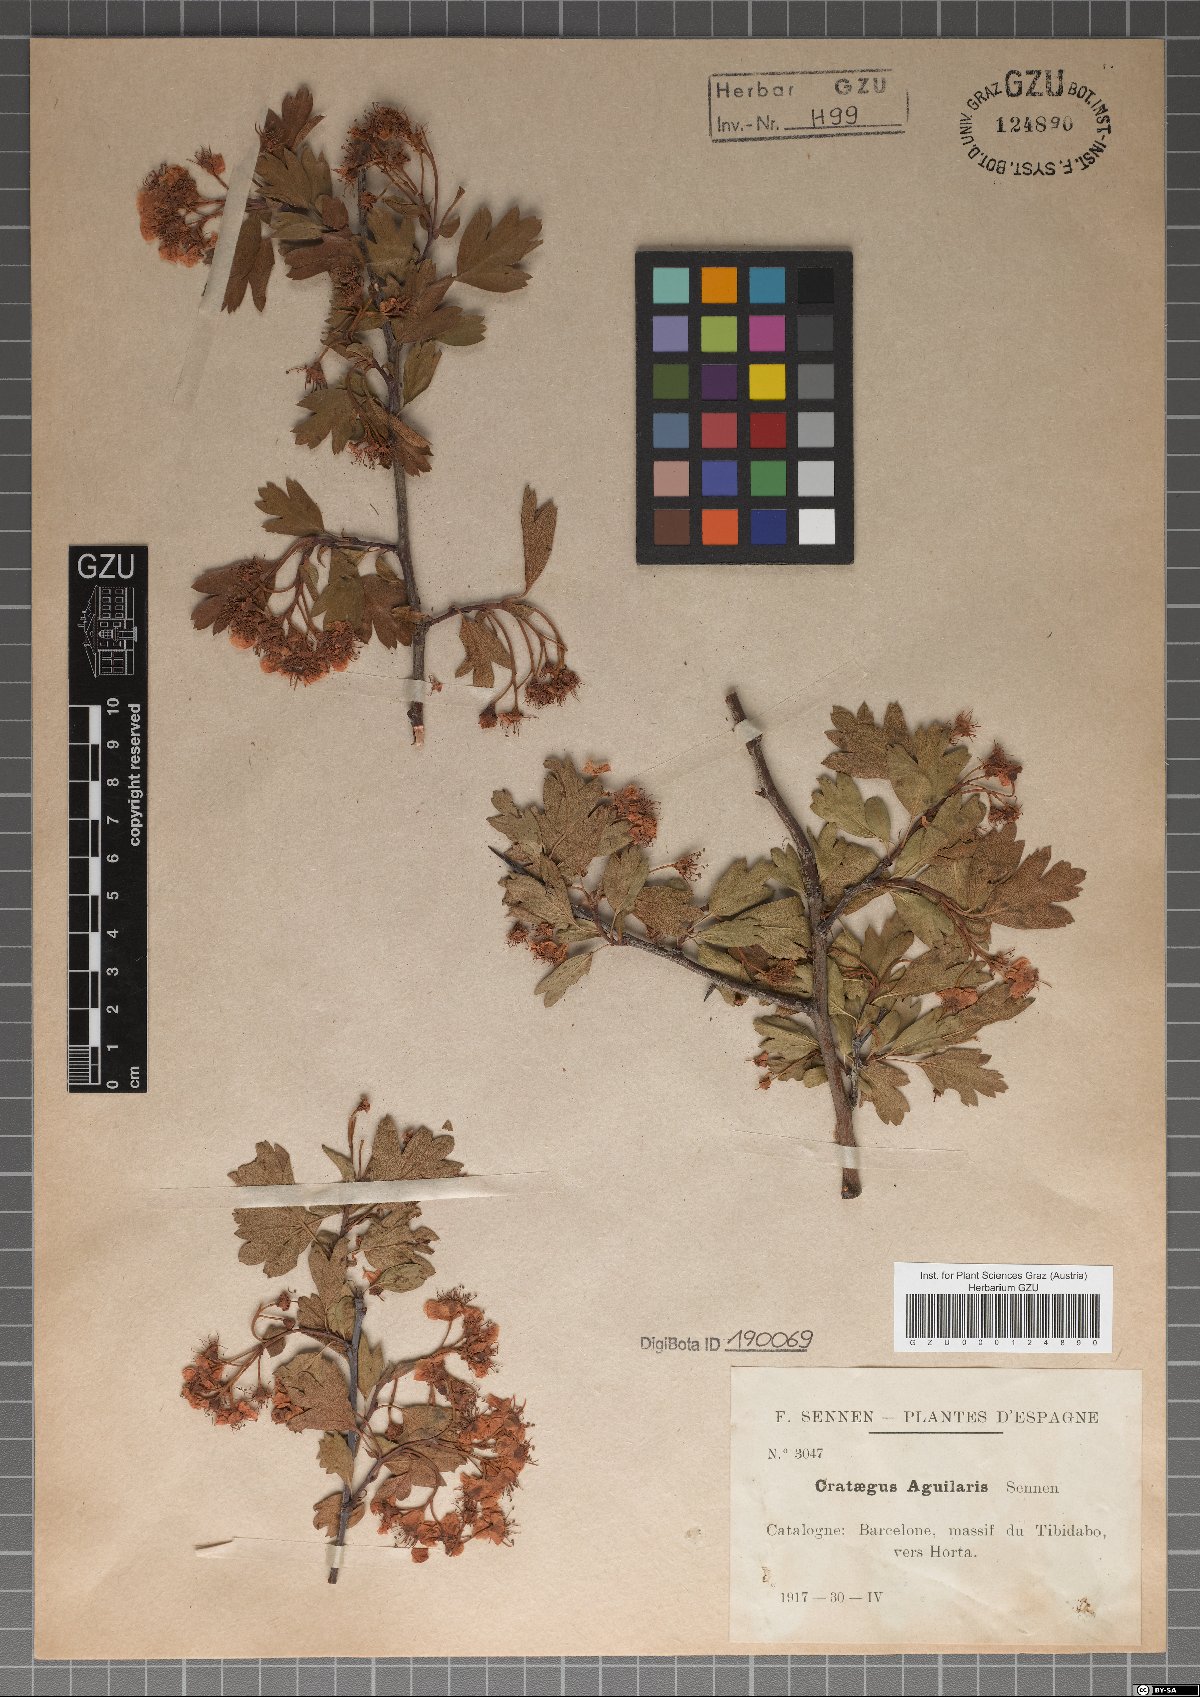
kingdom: Plantae
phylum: Tracheophyta
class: Magnoliopsida
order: Rosales
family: Rosaceae
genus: Crataegus
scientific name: Crataegus monogyna
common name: Hawthorn
